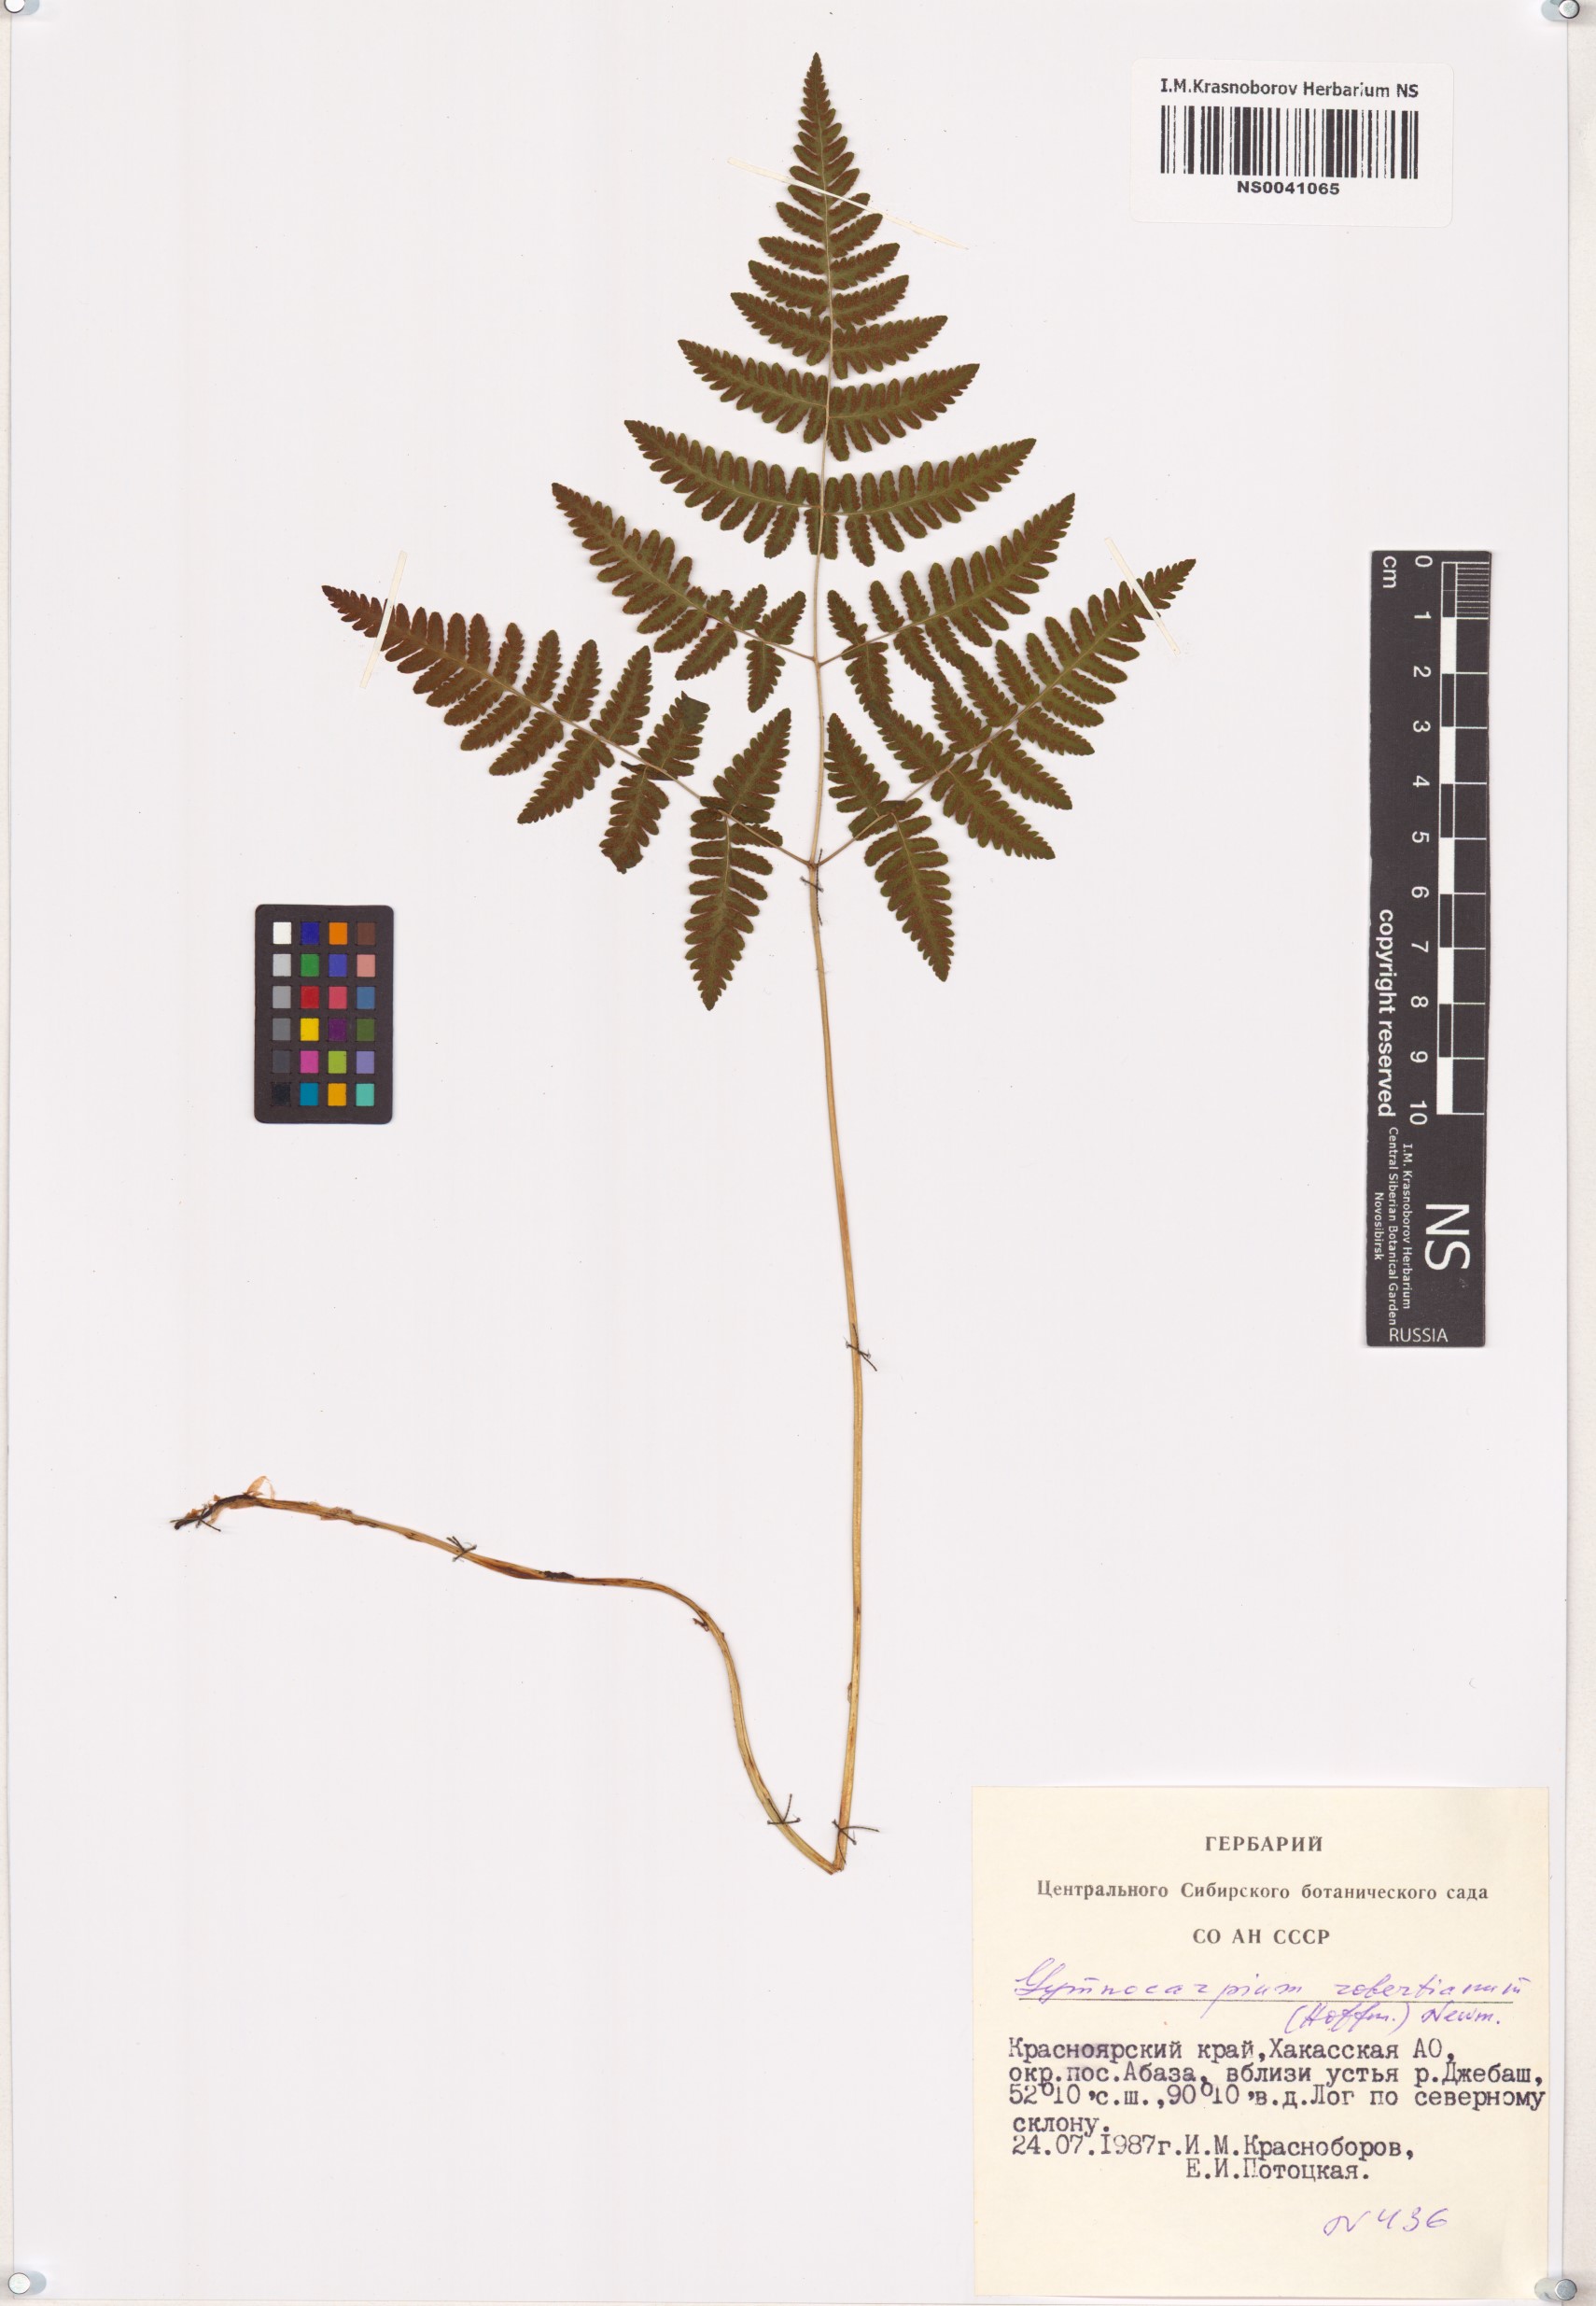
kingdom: Plantae
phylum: Tracheophyta
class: Polypodiopsida
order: Polypodiales
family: Cystopteridaceae
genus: Gymnocarpium
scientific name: Gymnocarpium robertianum
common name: Limestone fern
